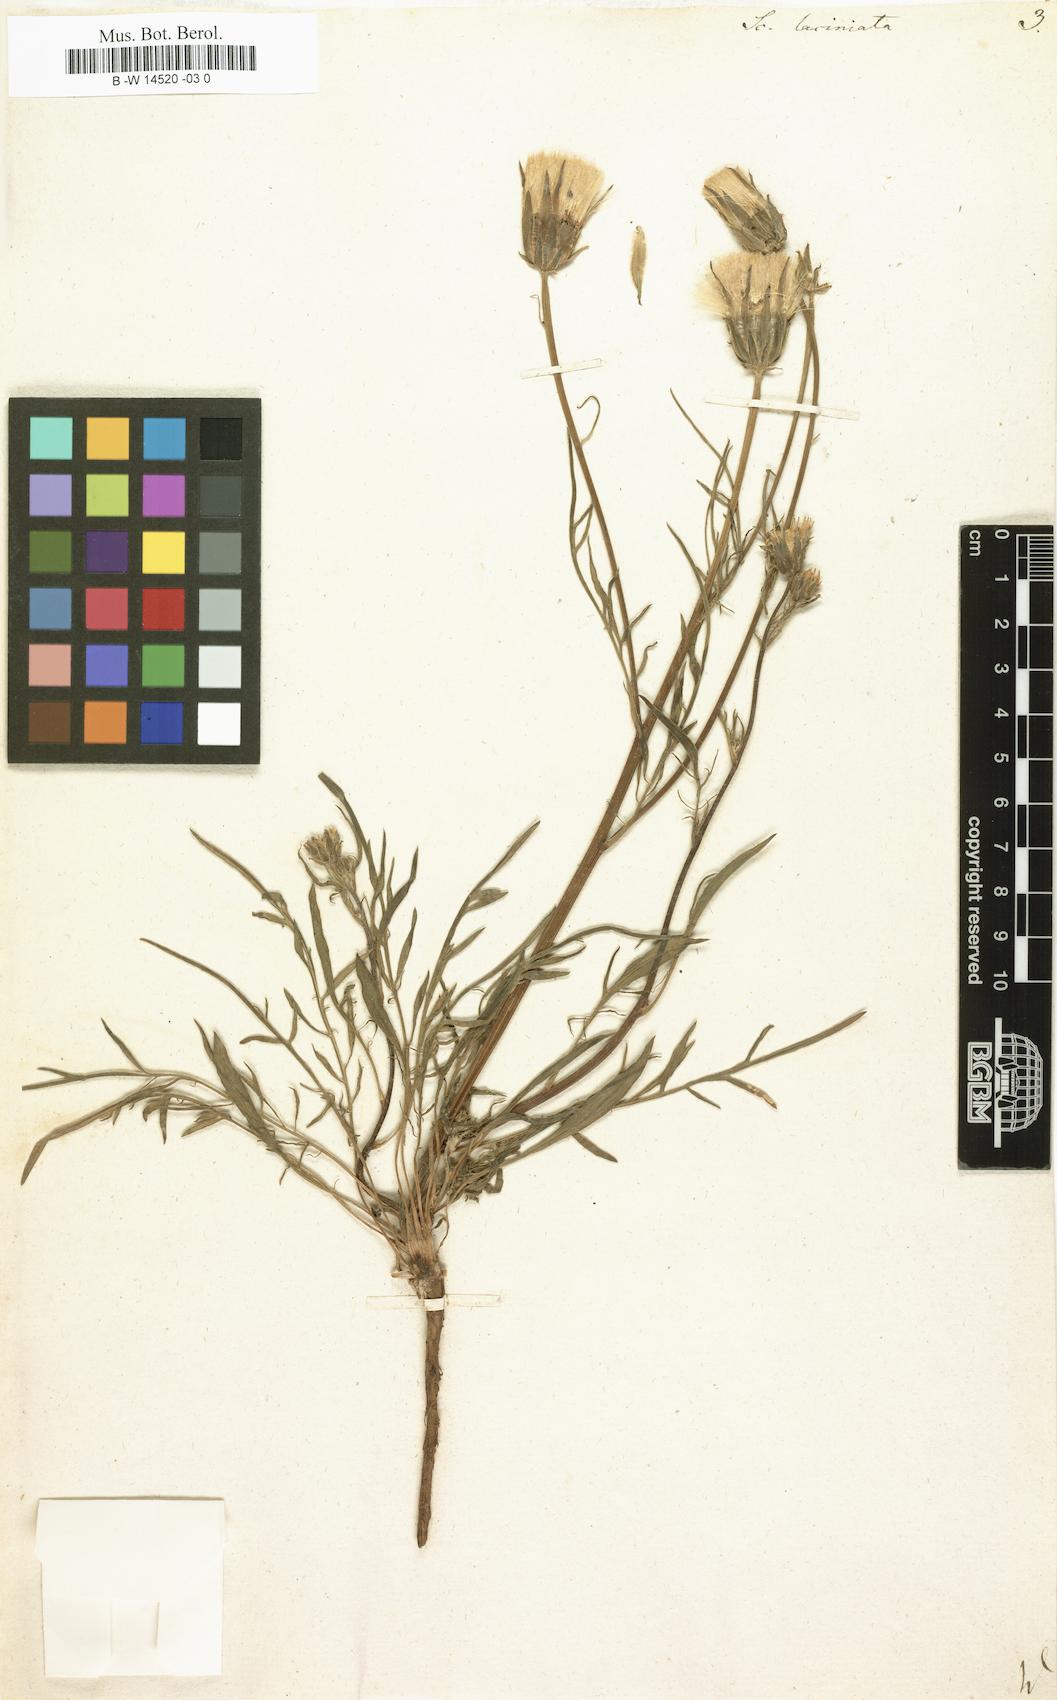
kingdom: Plantae
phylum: Tracheophyta
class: Magnoliopsida
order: Asterales
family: Asteraceae
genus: Scorzonera
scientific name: Scorzonera laciniata
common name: Cutleaf vipergrass
